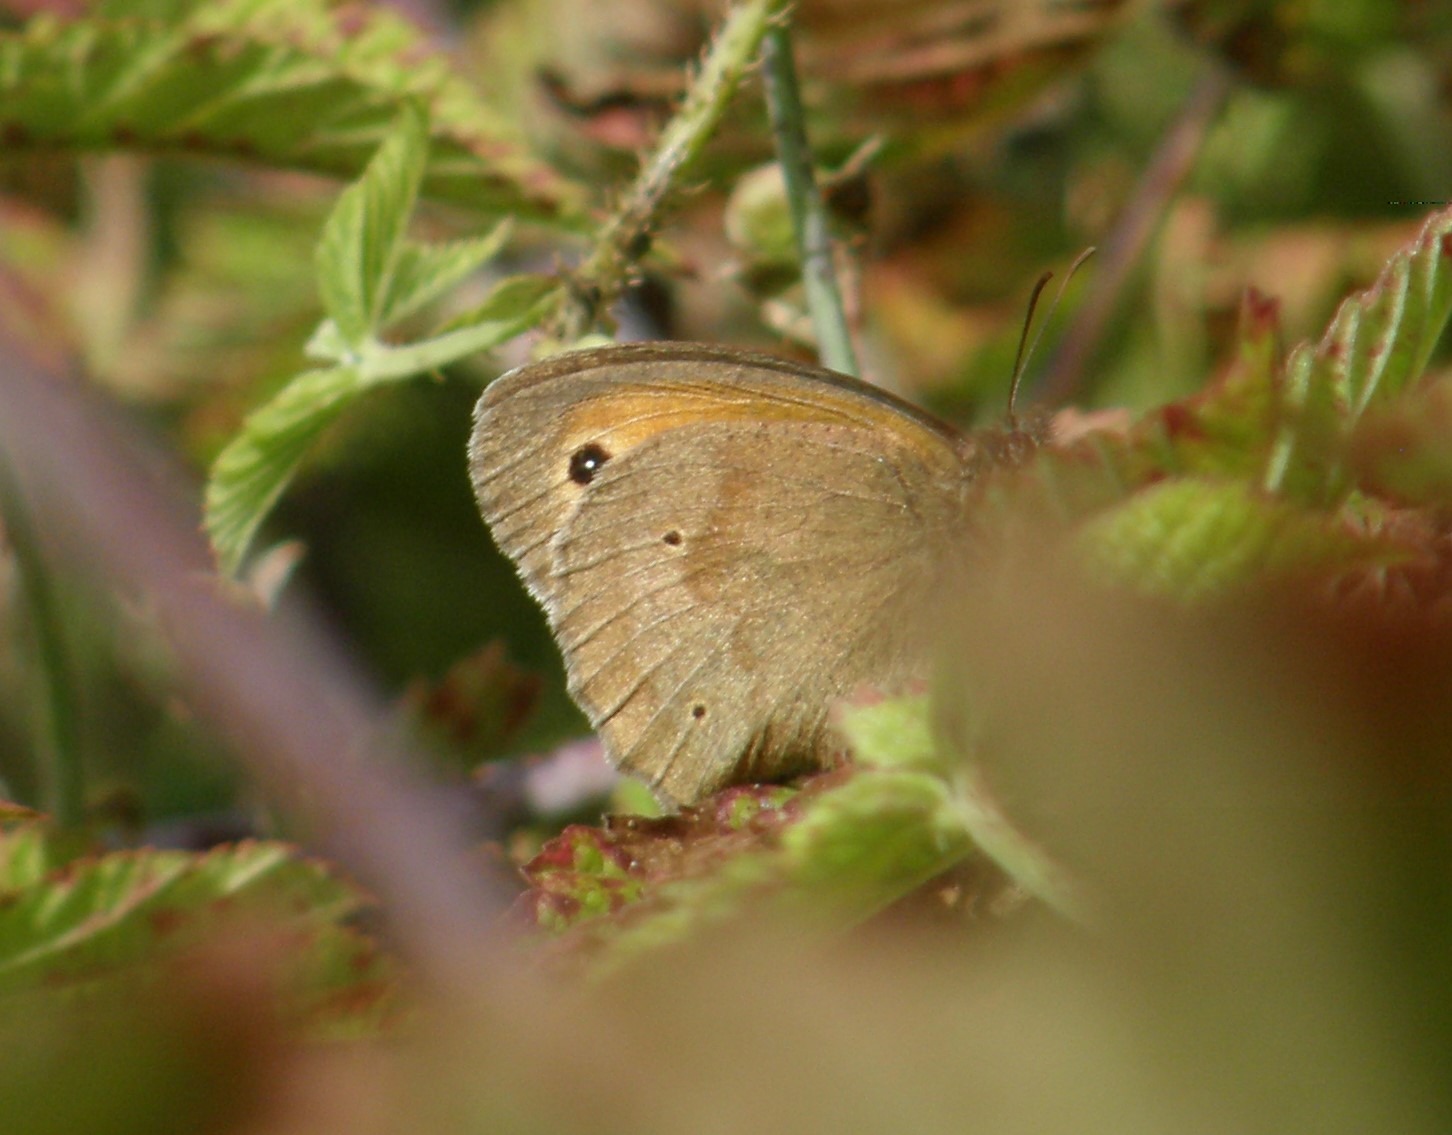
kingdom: Animalia
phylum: Arthropoda
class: Insecta
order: Lepidoptera
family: Nymphalidae
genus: Maniola
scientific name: Maniola jurtina
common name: Græsrandøje
